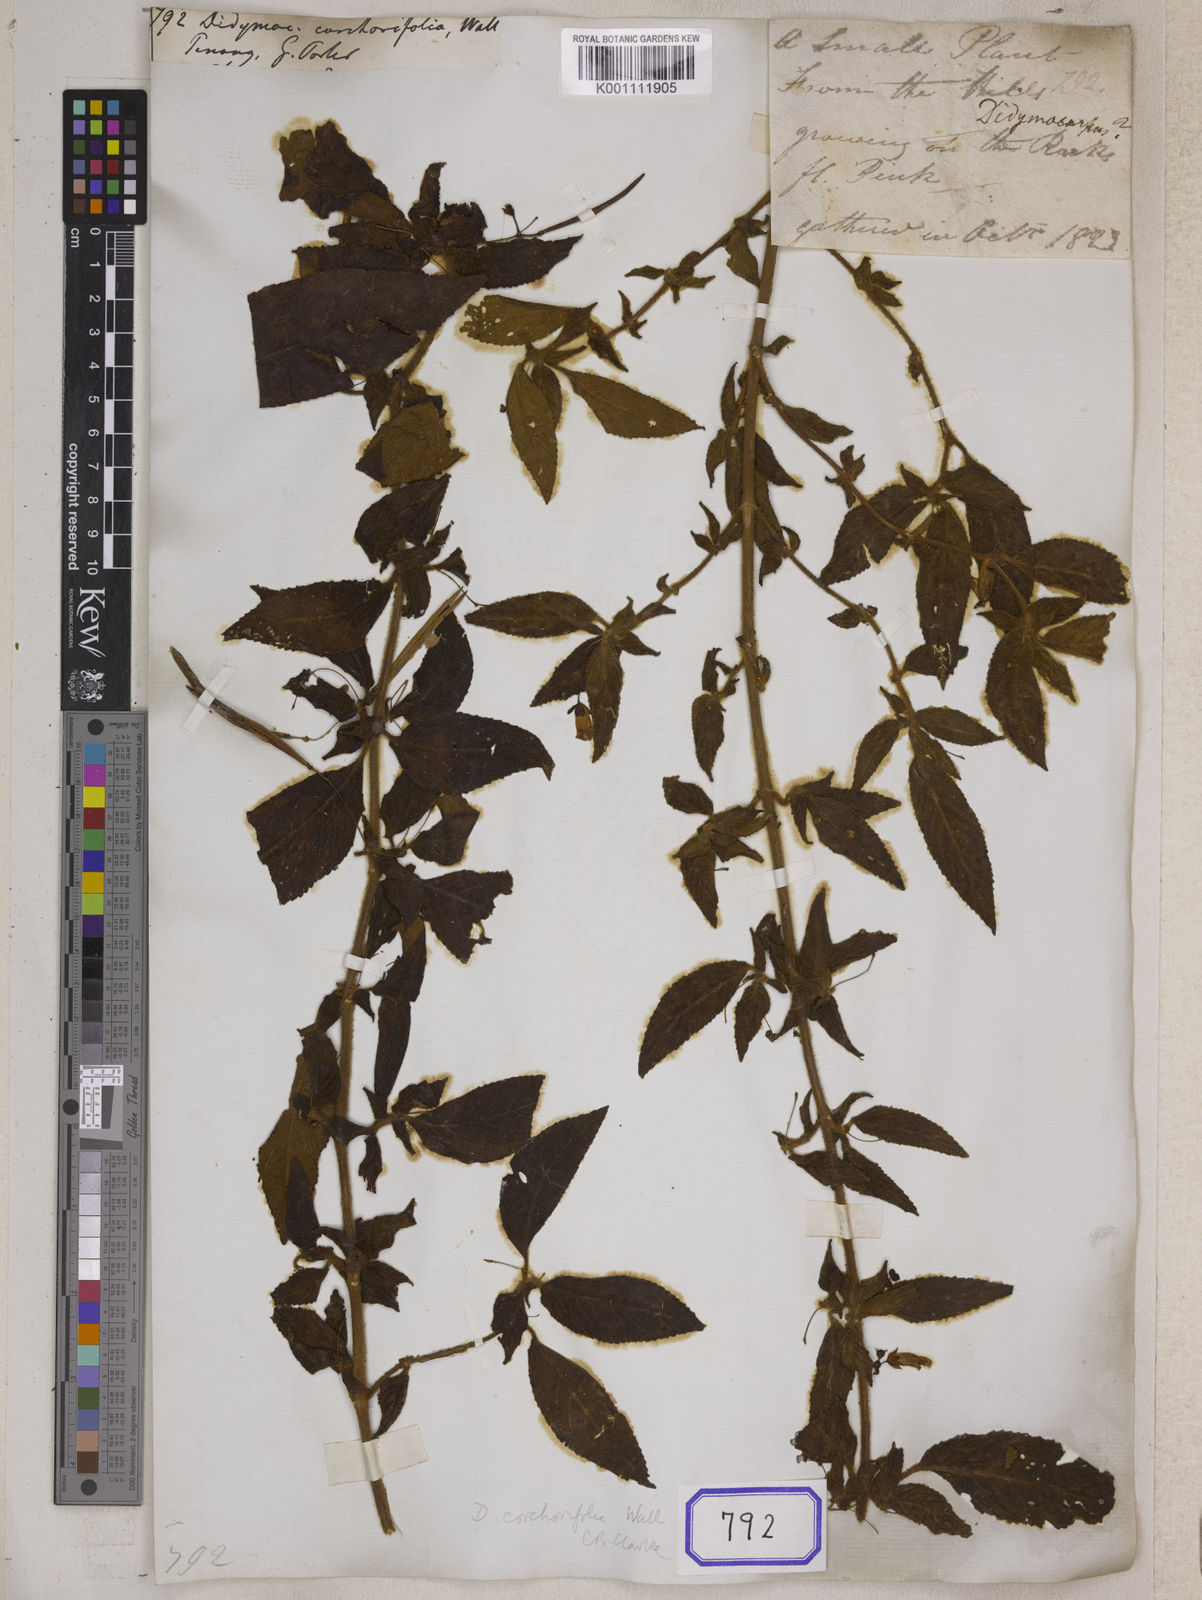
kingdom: Plantae
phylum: Tracheophyta
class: Magnoliopsida
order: Lamiales
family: Gesneriaceae
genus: Didymocarpus
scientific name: Didymocarpus
